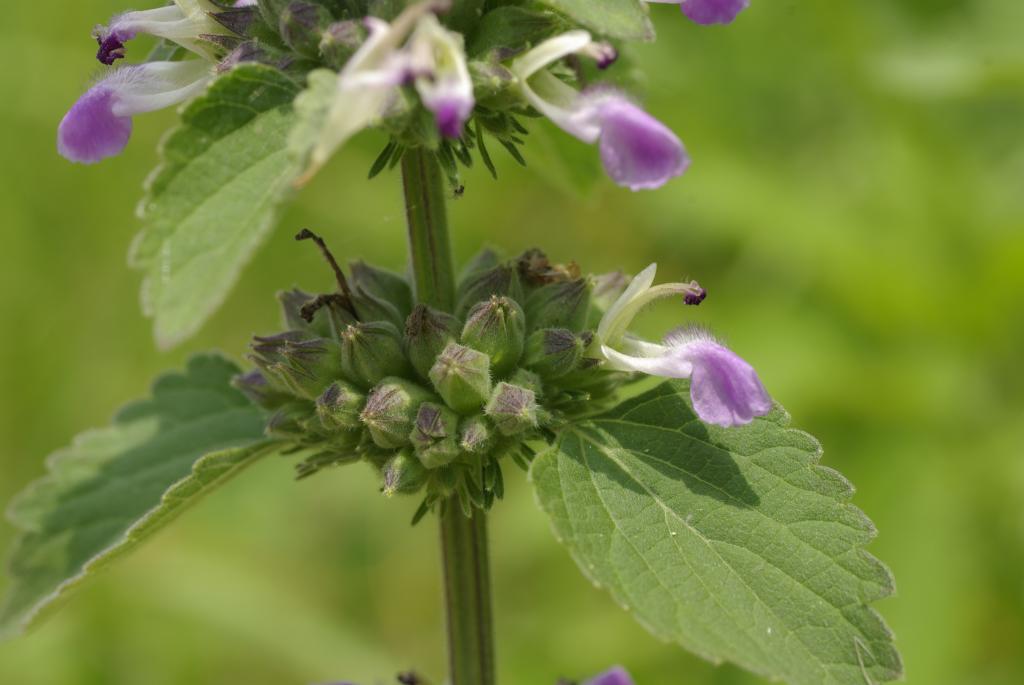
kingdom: Plantae
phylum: Tracheophyta
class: Magnoliopsida
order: Lamiales
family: Lamiaceae
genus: Anisomeles
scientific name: Anisomeles indica
